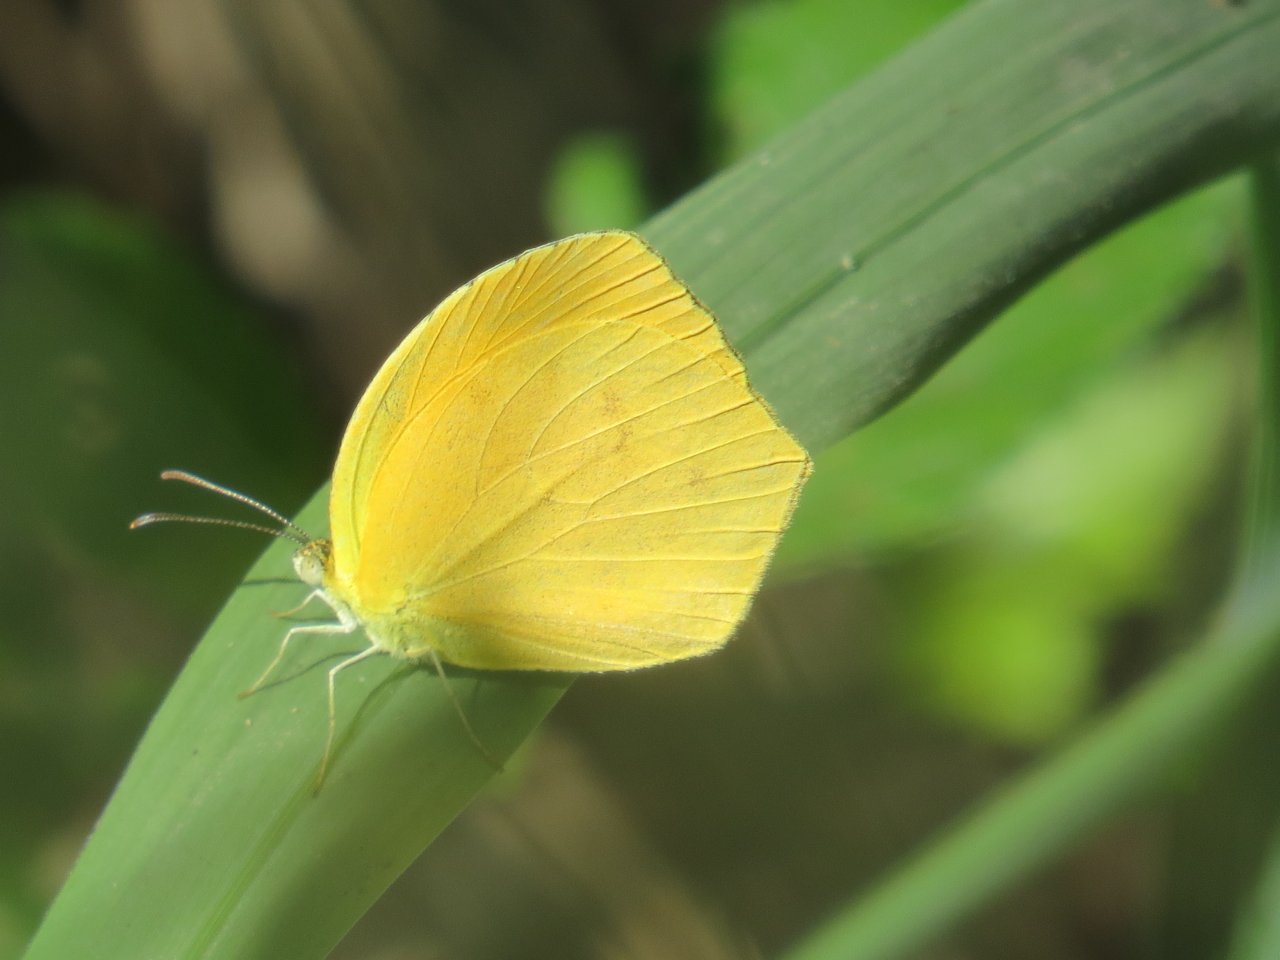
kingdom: Animalia
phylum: Arthropoda
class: Insecta
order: Lepidoptera
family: Pieridae
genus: Pyrisitia
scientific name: Pyrisitia proterpia
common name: Tailed Orange
